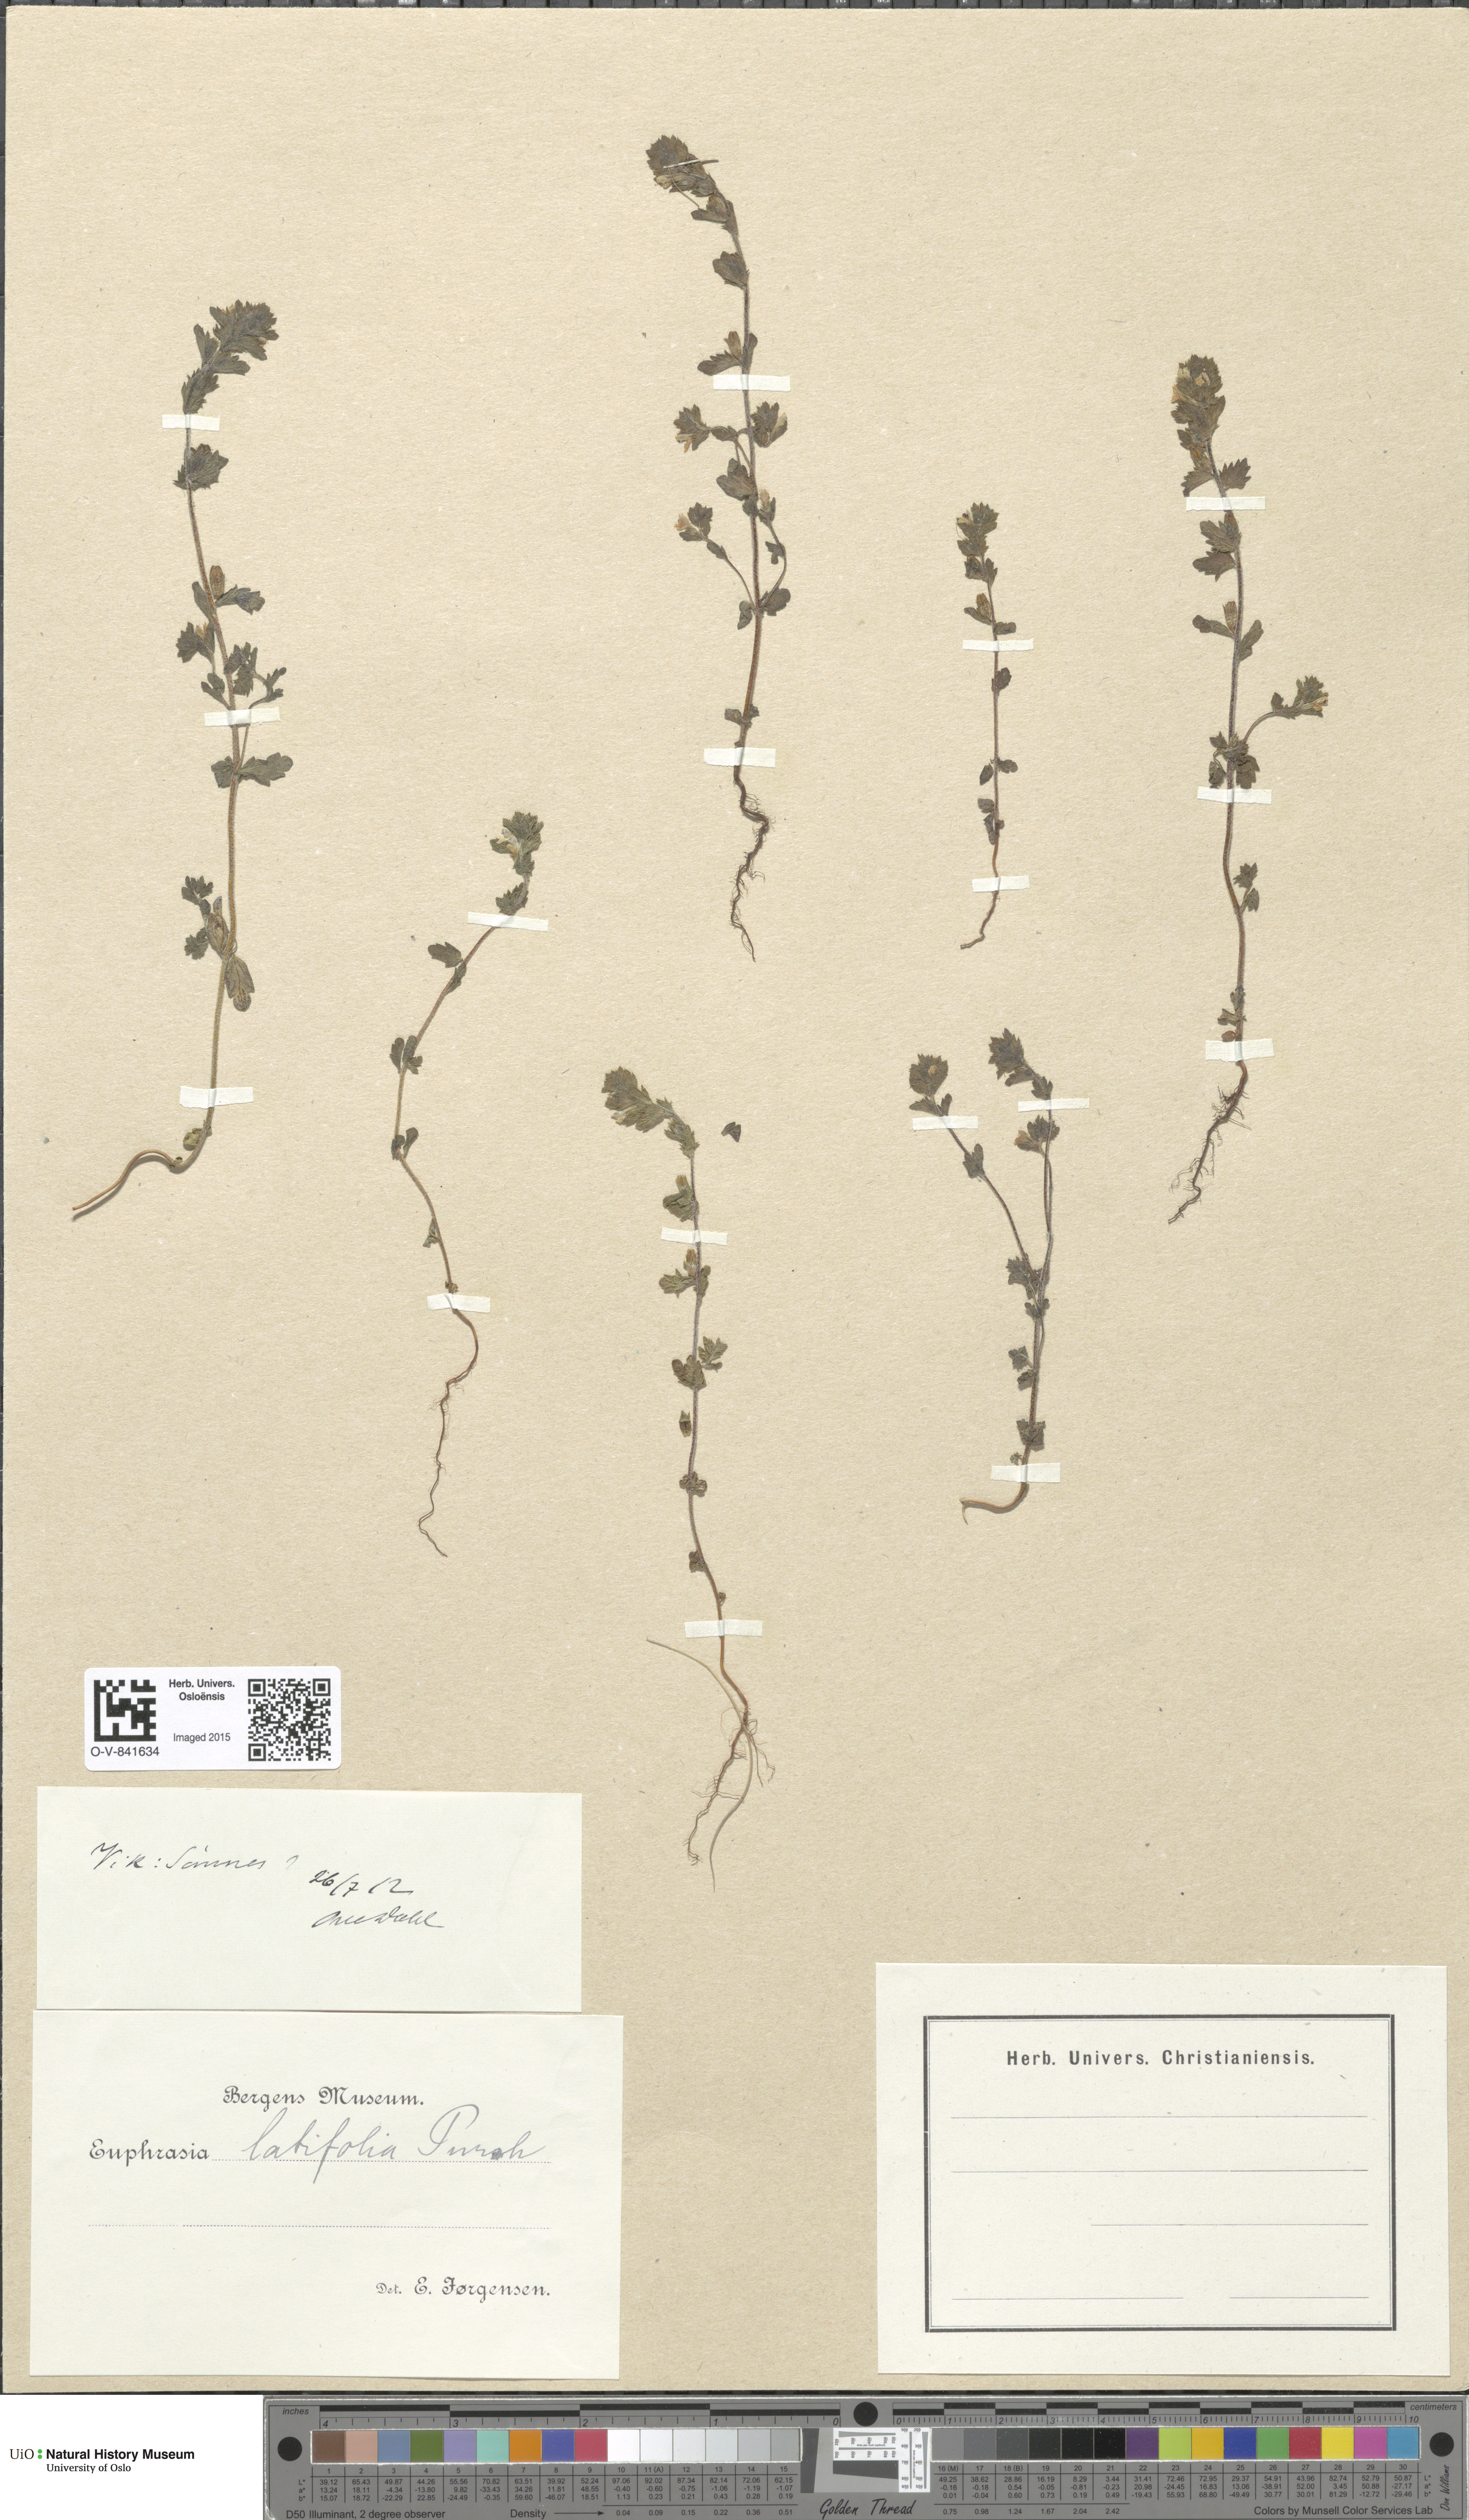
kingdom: Plantae
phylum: Tracheophyta
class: Magnoliopsida
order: Lamiales
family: Orobanchaceae
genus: Euphrasia
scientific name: Euphrasia wettsteinii
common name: Wettstein's eyebright
